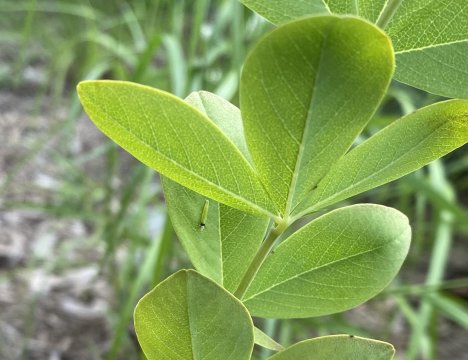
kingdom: Animalia
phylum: Arthropoda
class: Insecta
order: Lepidoptera
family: Hesperiidae
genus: Gesta
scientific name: Gesta
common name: Wild Indigo Duskywing
